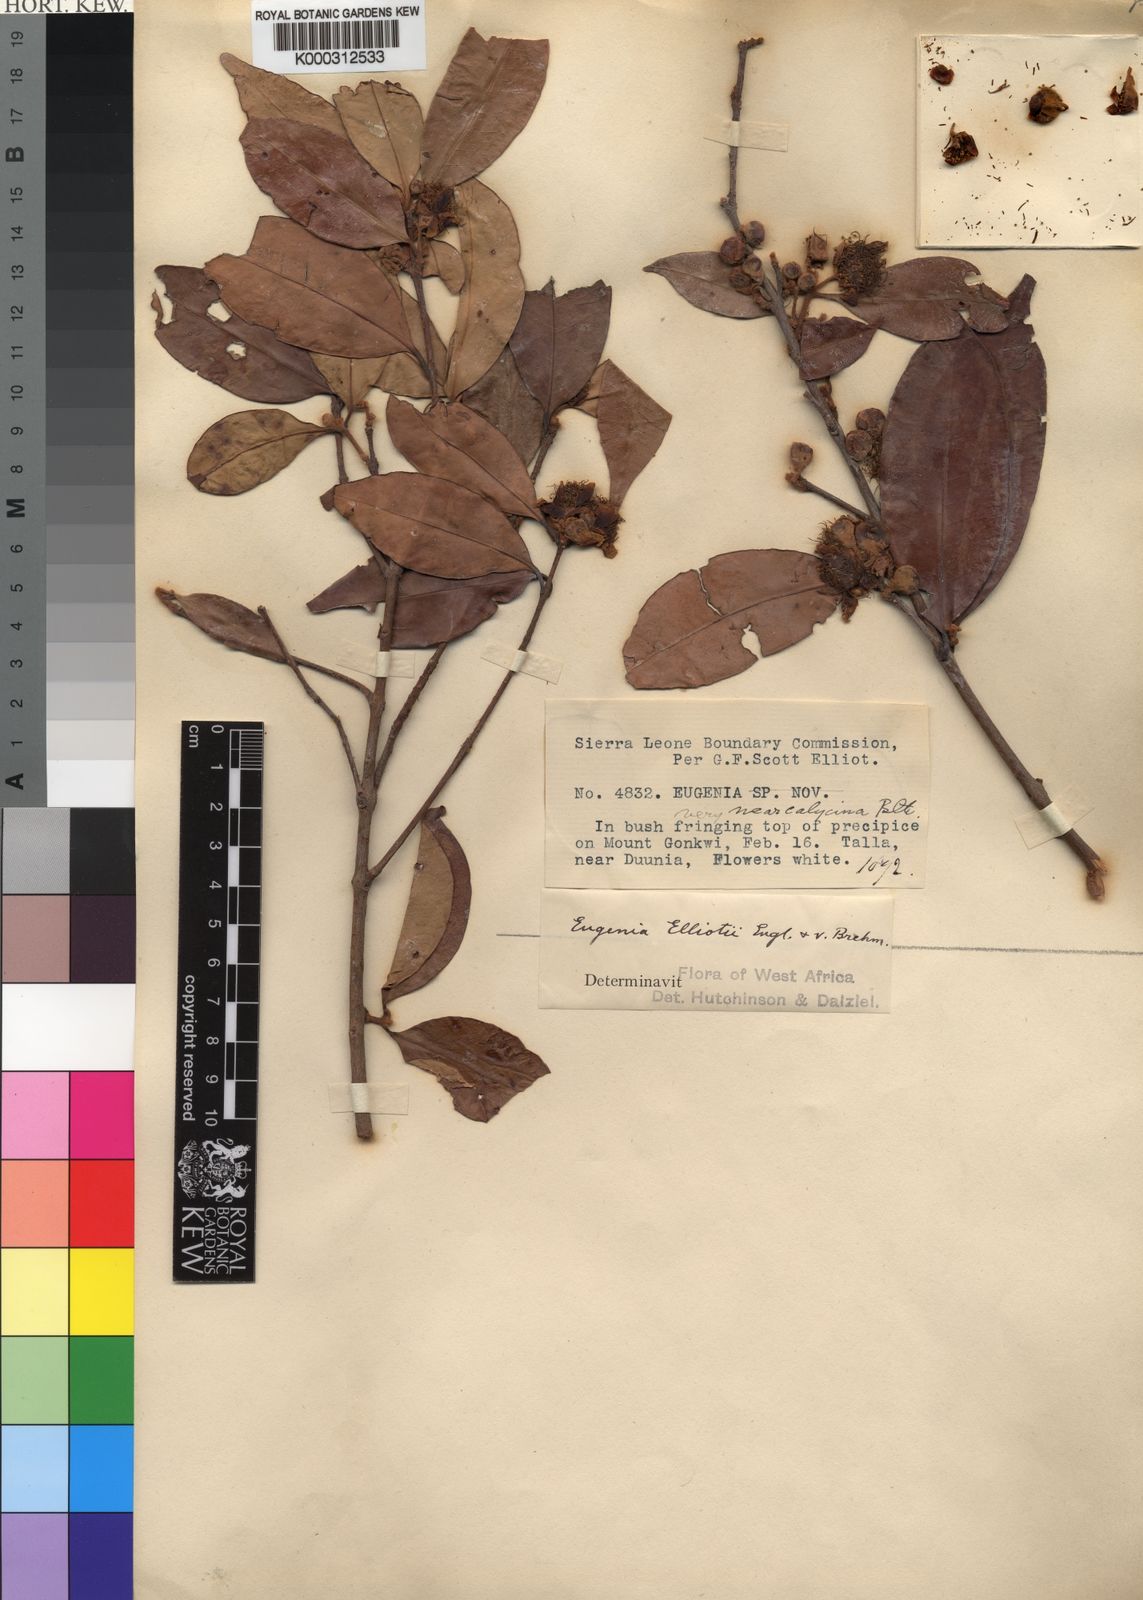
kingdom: Plantae
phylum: Tracheophyta
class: Magnoliopsida
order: Myrtales
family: Myrtaceae
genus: Eugenia
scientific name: Eugenia elliotii
